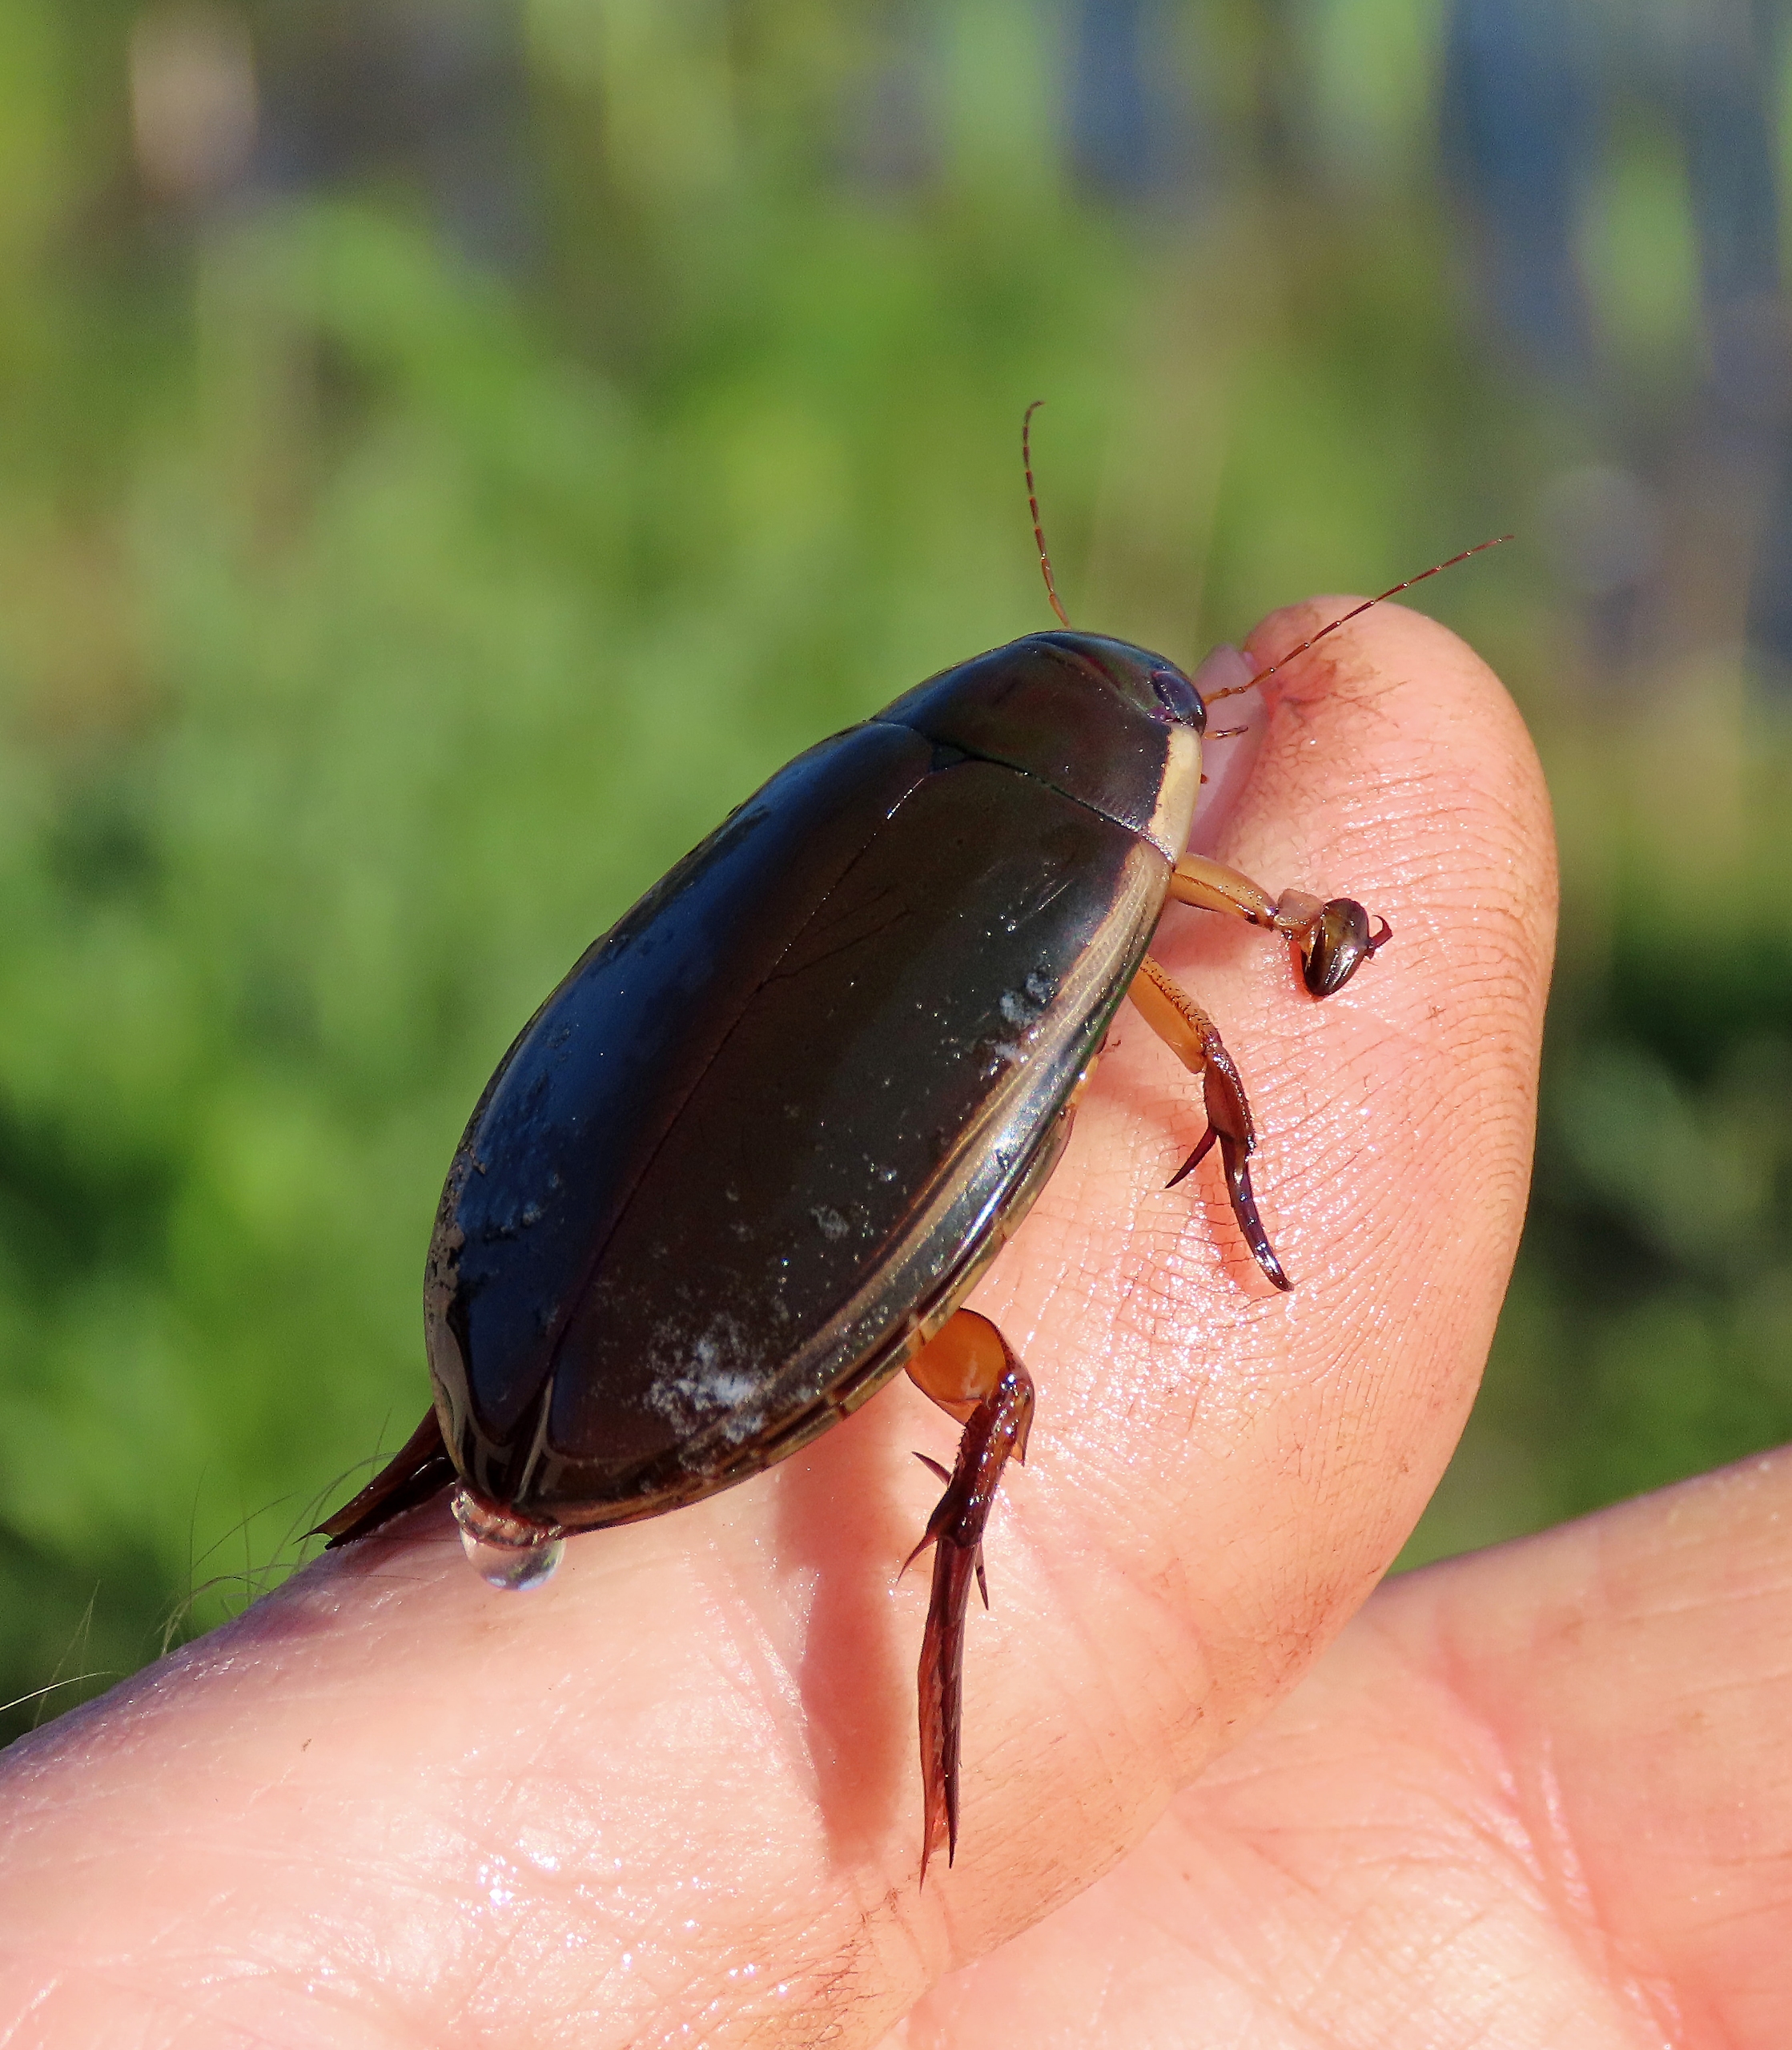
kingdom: Animalia
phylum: Arthropoda
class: Insecta
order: Coleoptera
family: Dytiscidae
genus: Cybister
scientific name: Cybister lateralimarginalis
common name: Dykkervandkalv
